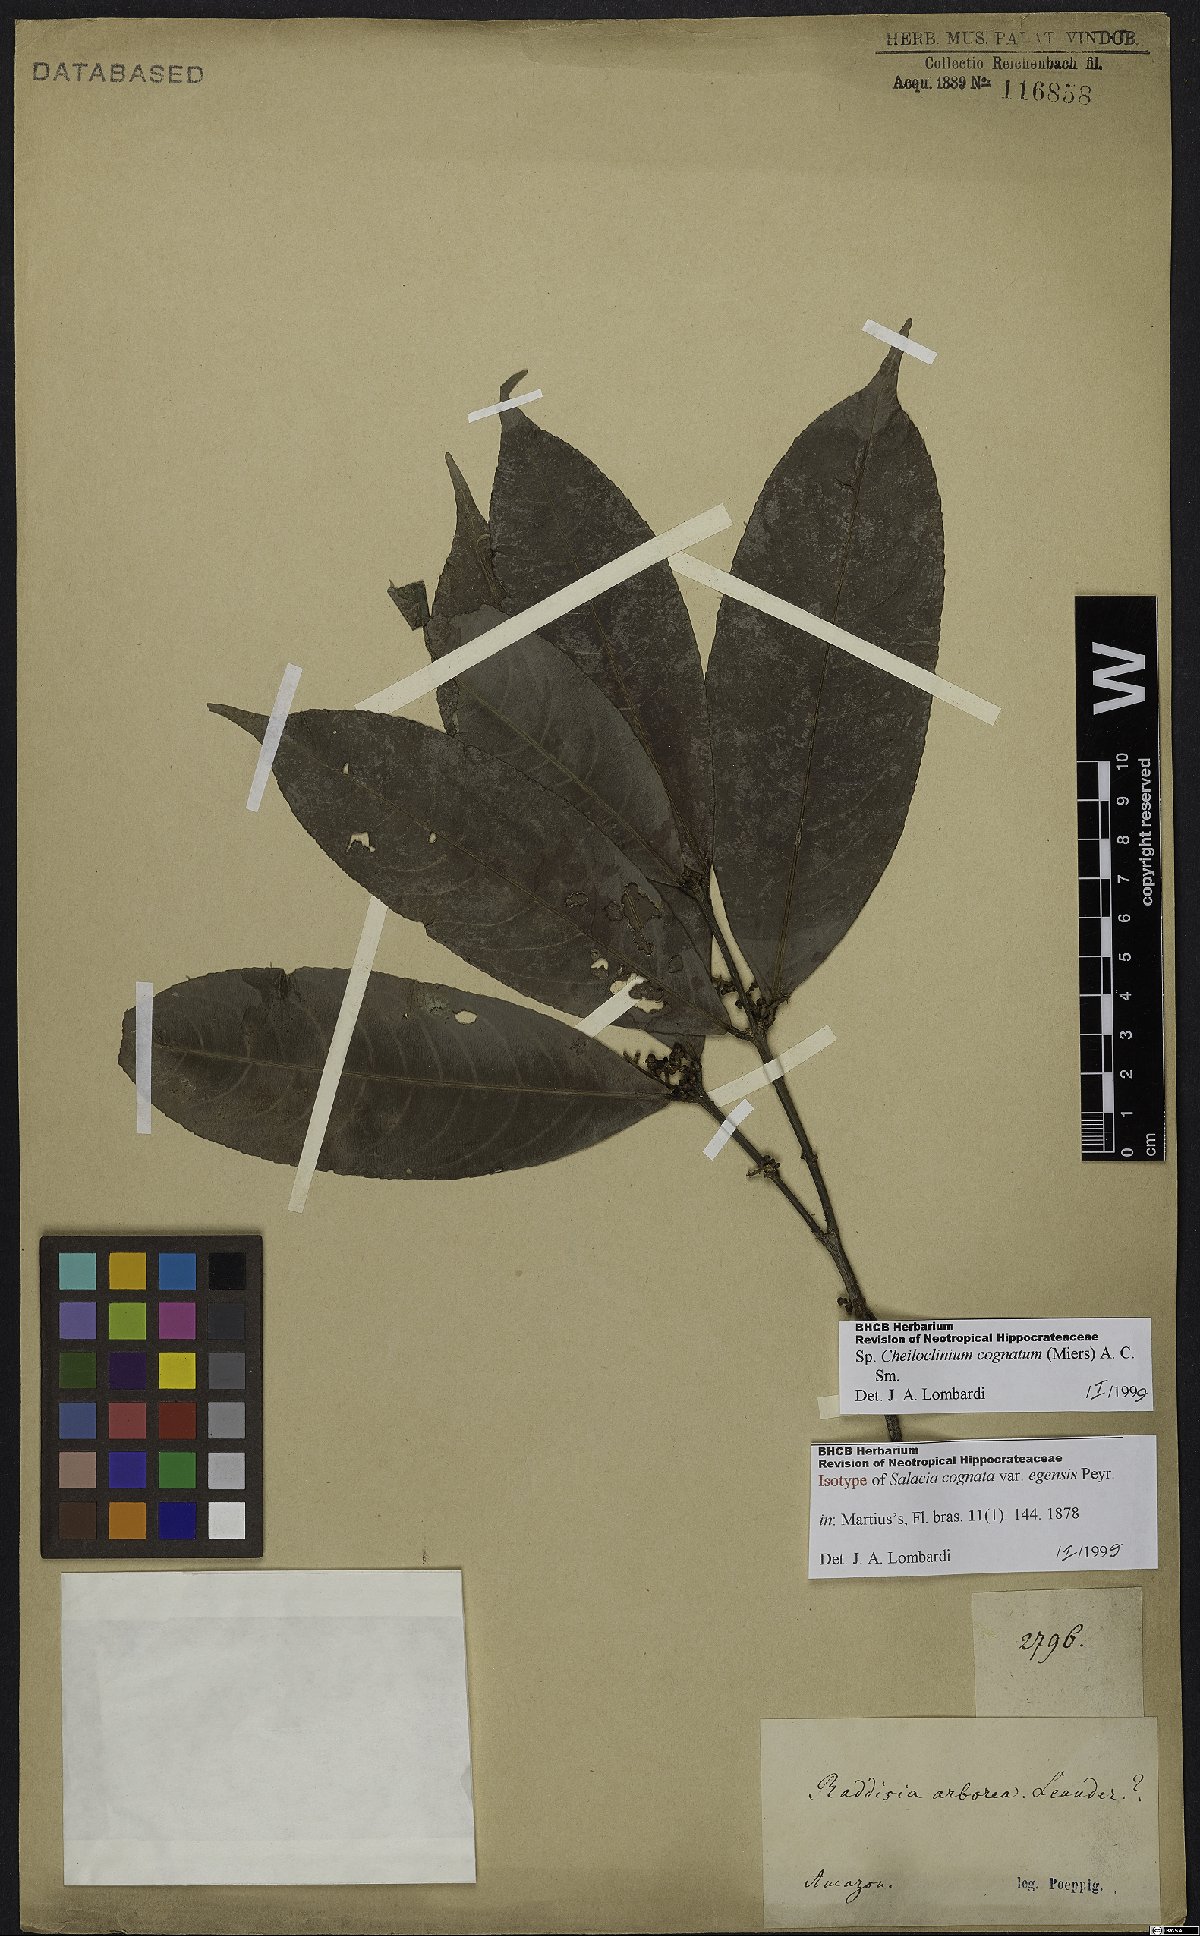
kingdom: Plantae
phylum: Tracheophyta
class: Magnoliopsida
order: Celastrales
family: Celastraceae
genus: Cheiloclinium
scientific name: Cheiloclinium cognatum
